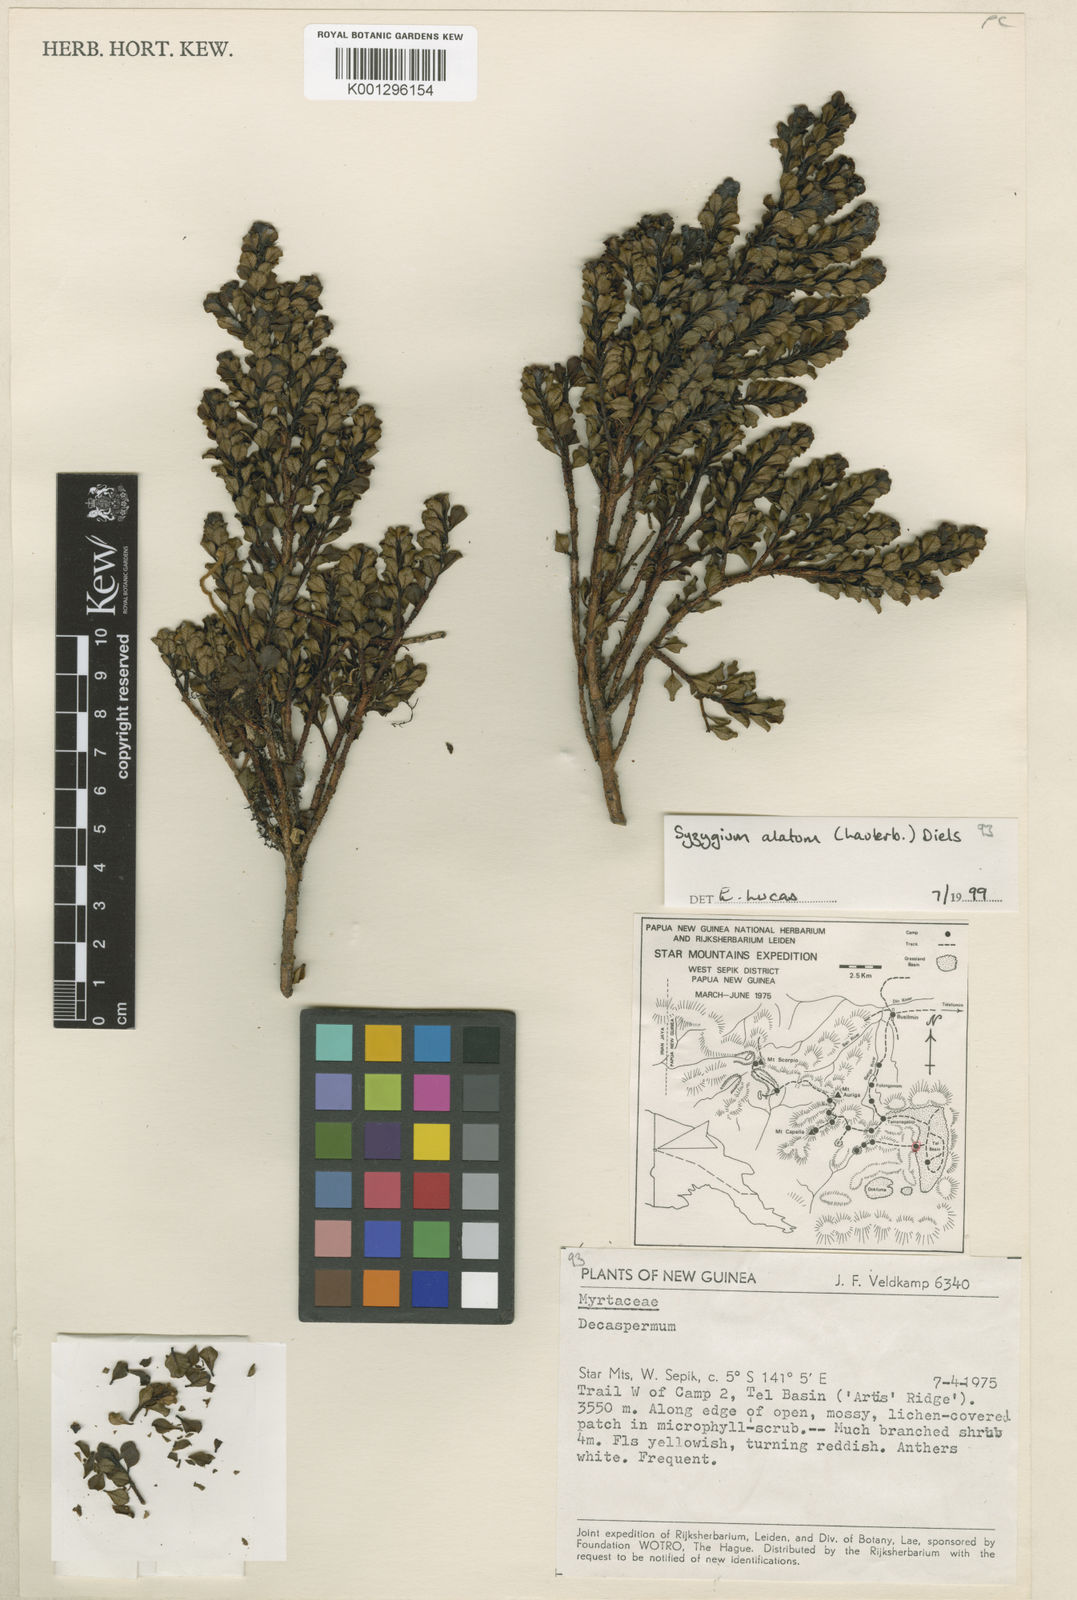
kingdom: Plantae
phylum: Tracheophyta
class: Magnoliopsida
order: Myrtales
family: Myrtaceae
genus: Syzygium
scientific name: Syzygium alatum
